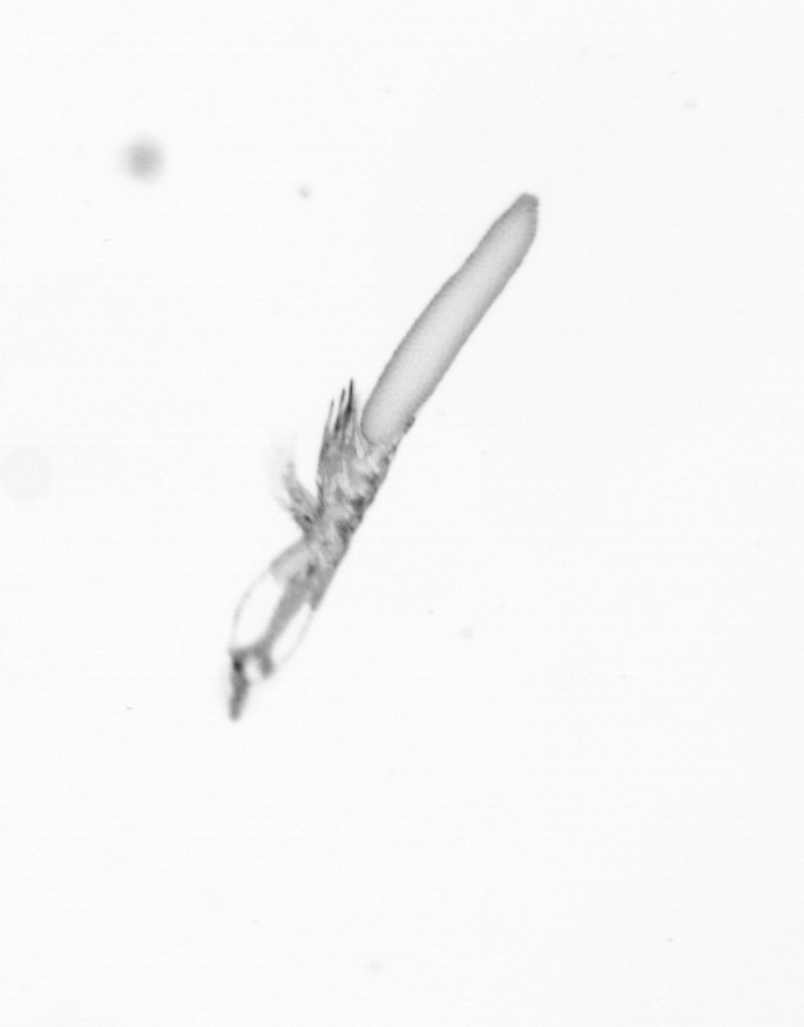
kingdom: Animalia
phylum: Arthropoda
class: Copepoda
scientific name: Copepoda
